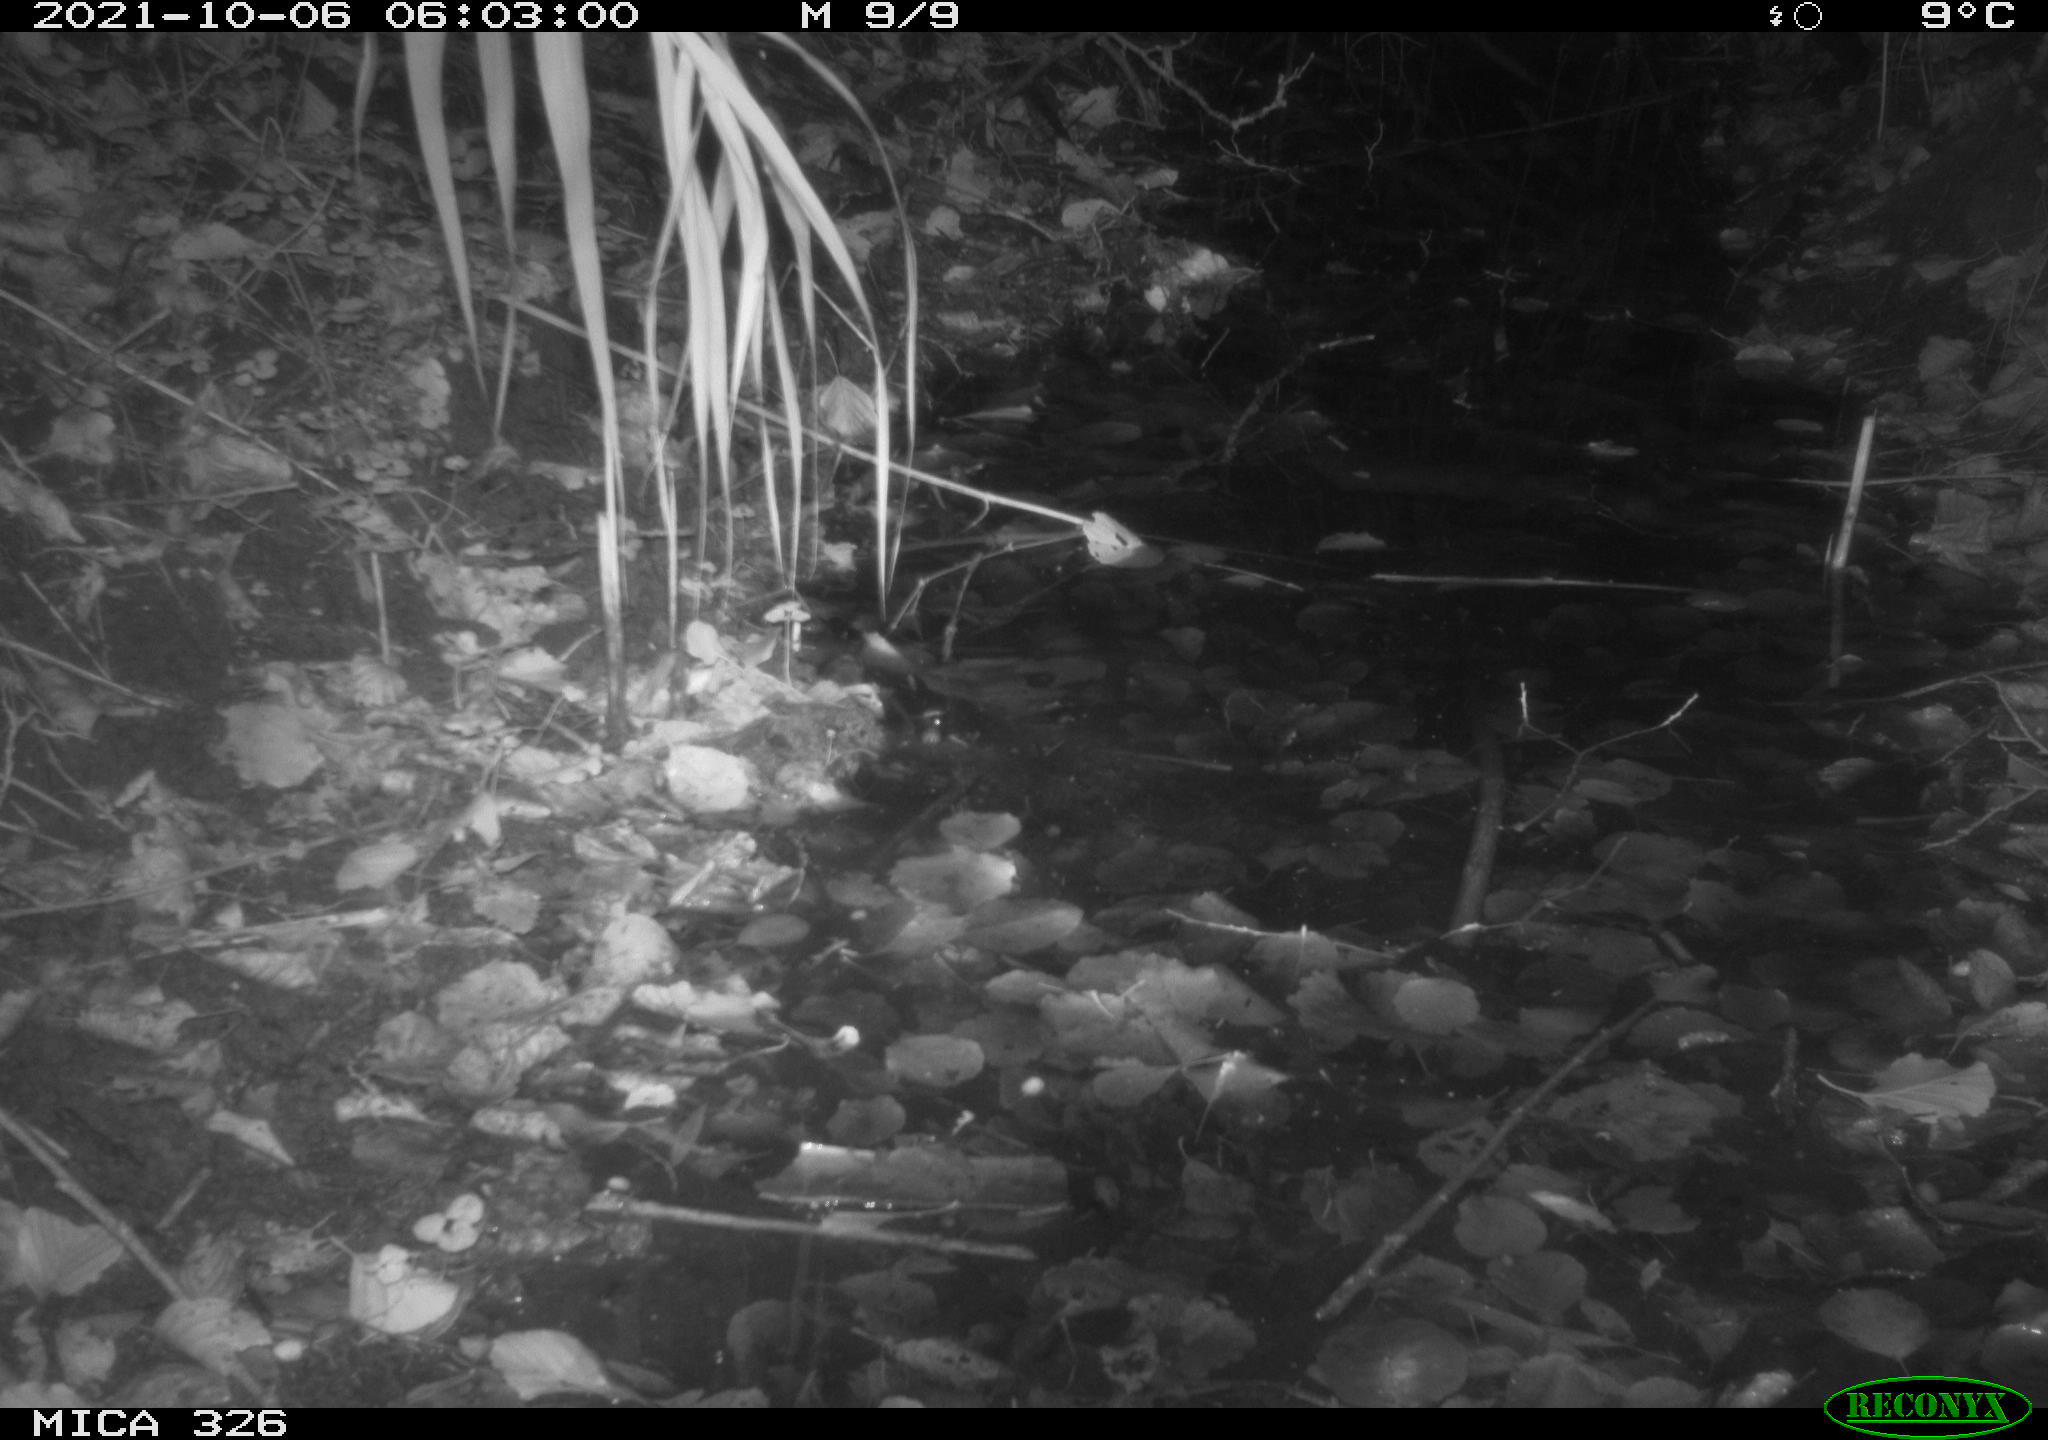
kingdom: Animalia
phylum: Chordata
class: Mammalia
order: Rodentia
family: Muridae
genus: Rattus
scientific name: Rattus norvegicus
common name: Brown rat
